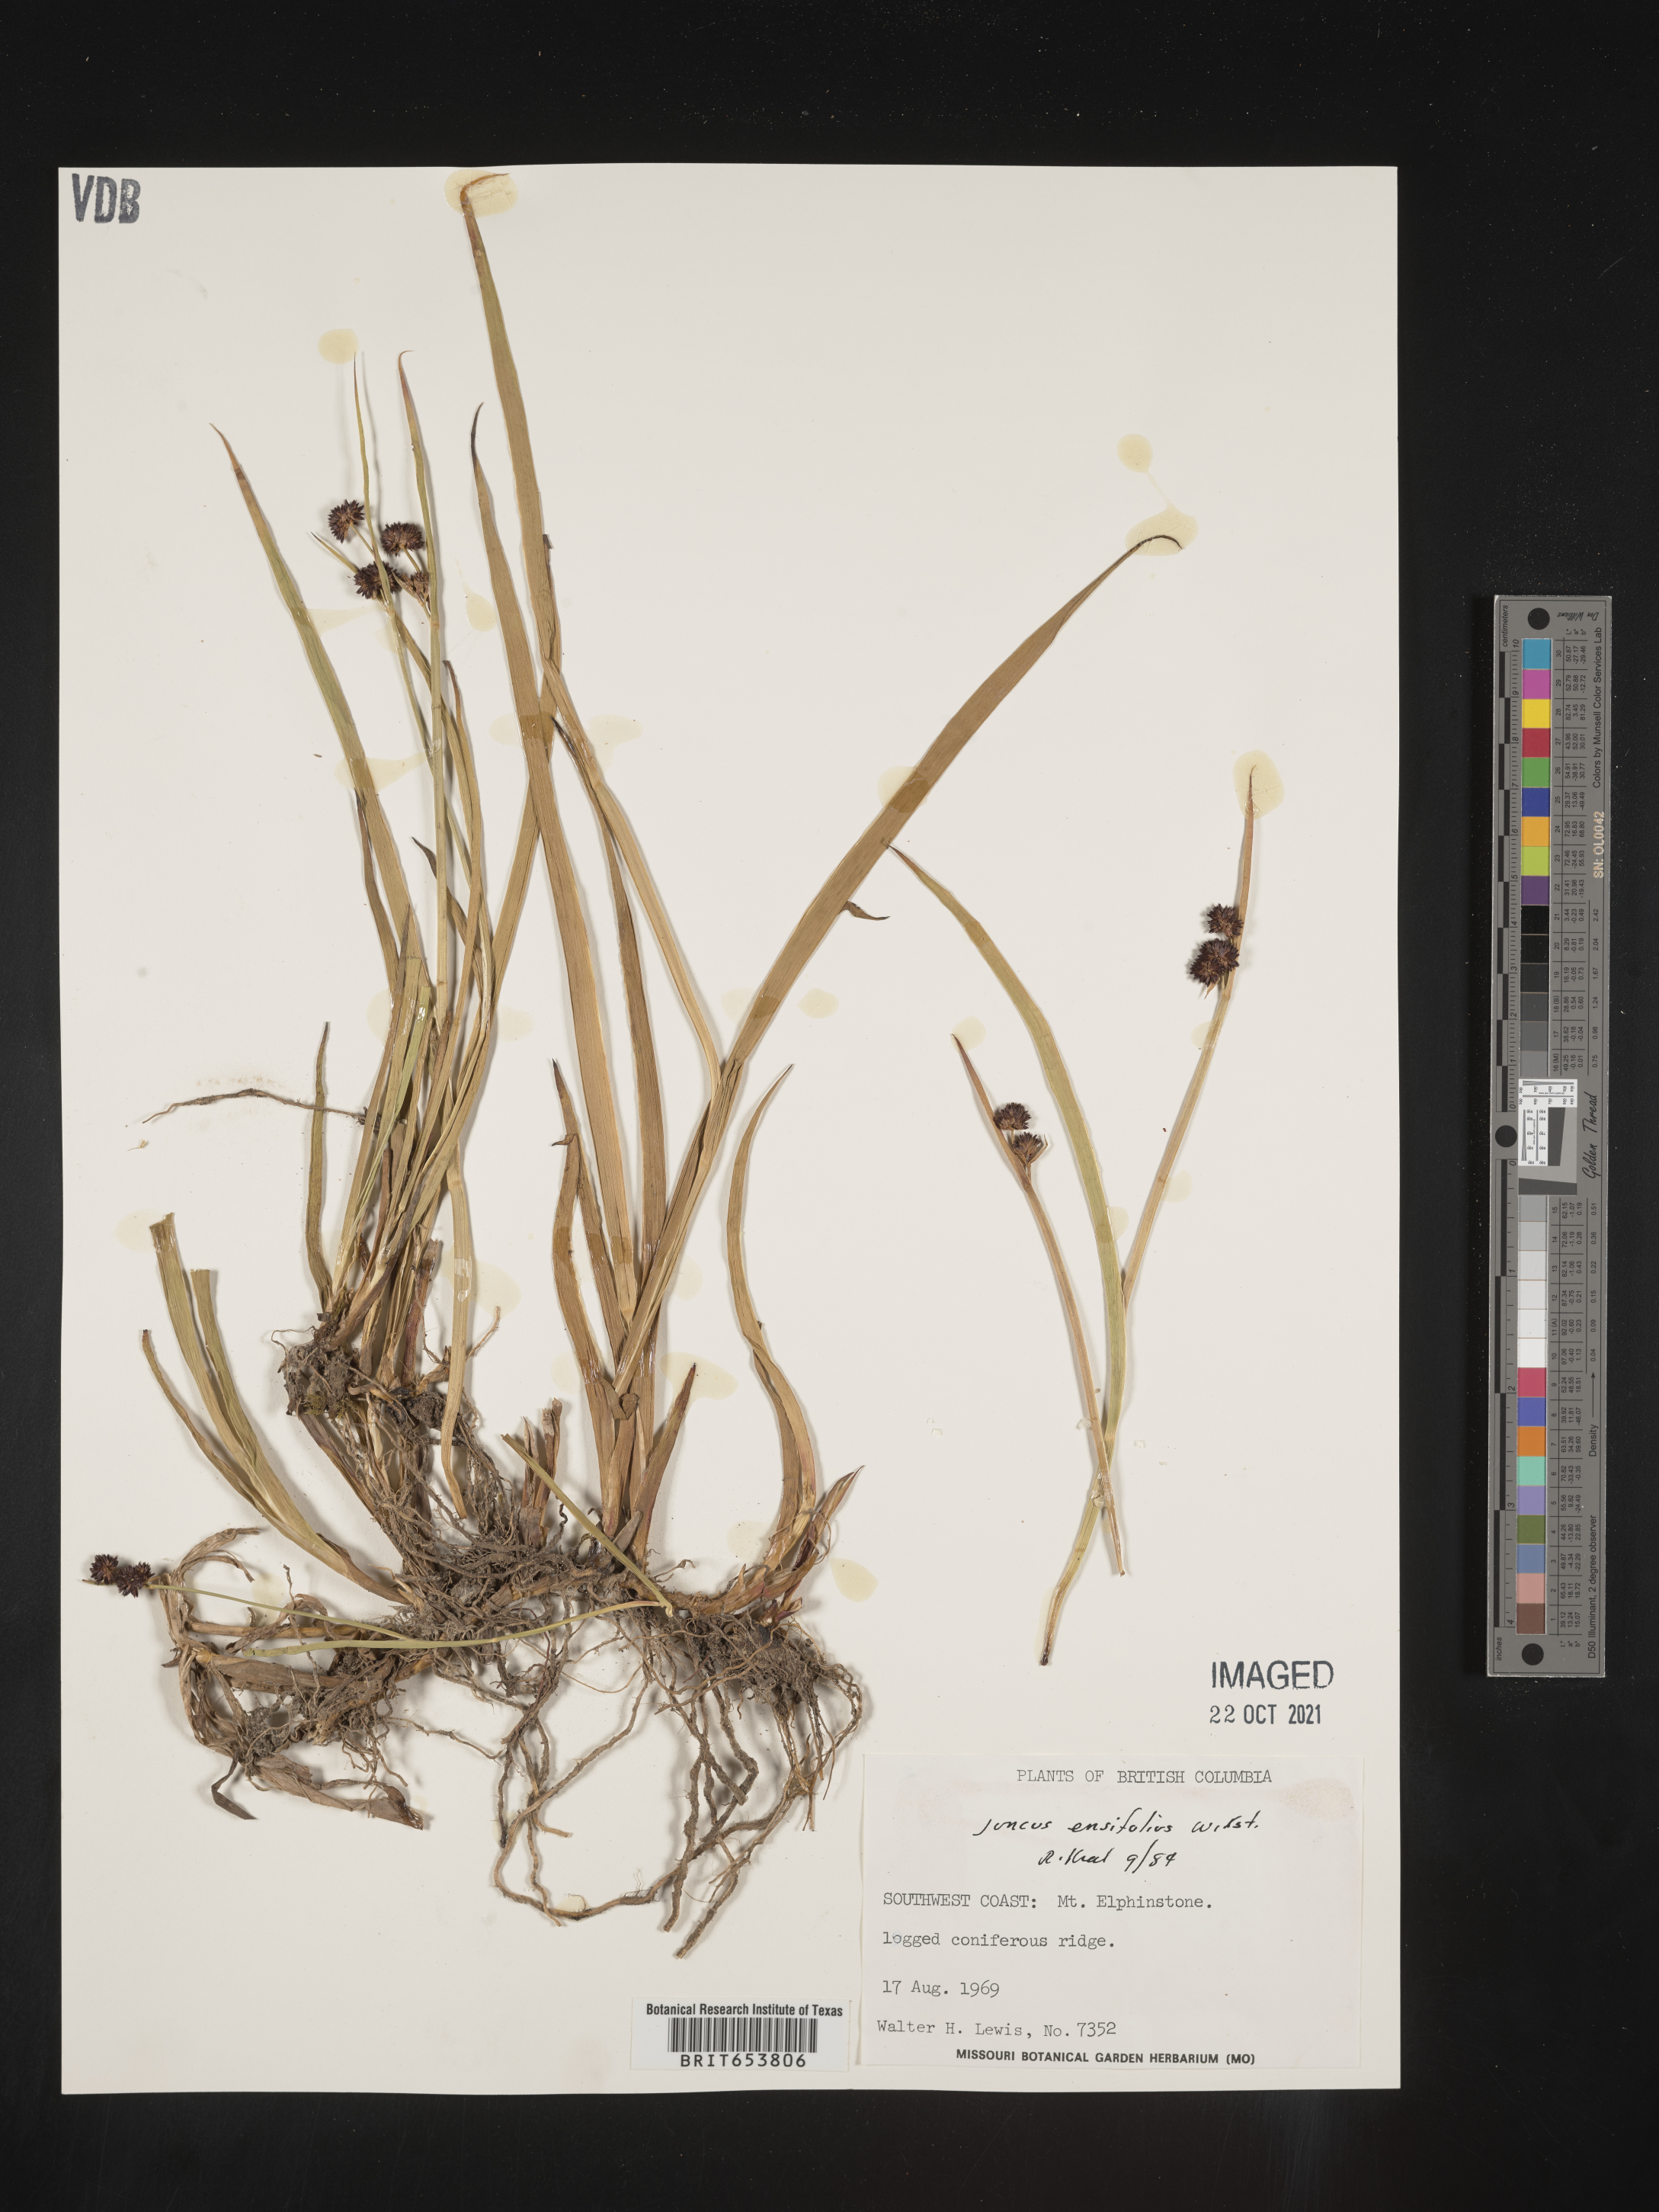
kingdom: Plantae
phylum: Tracheophyta
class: Liliopsida
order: Poales
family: Juncaceae
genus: Juncus
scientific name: Juncus
